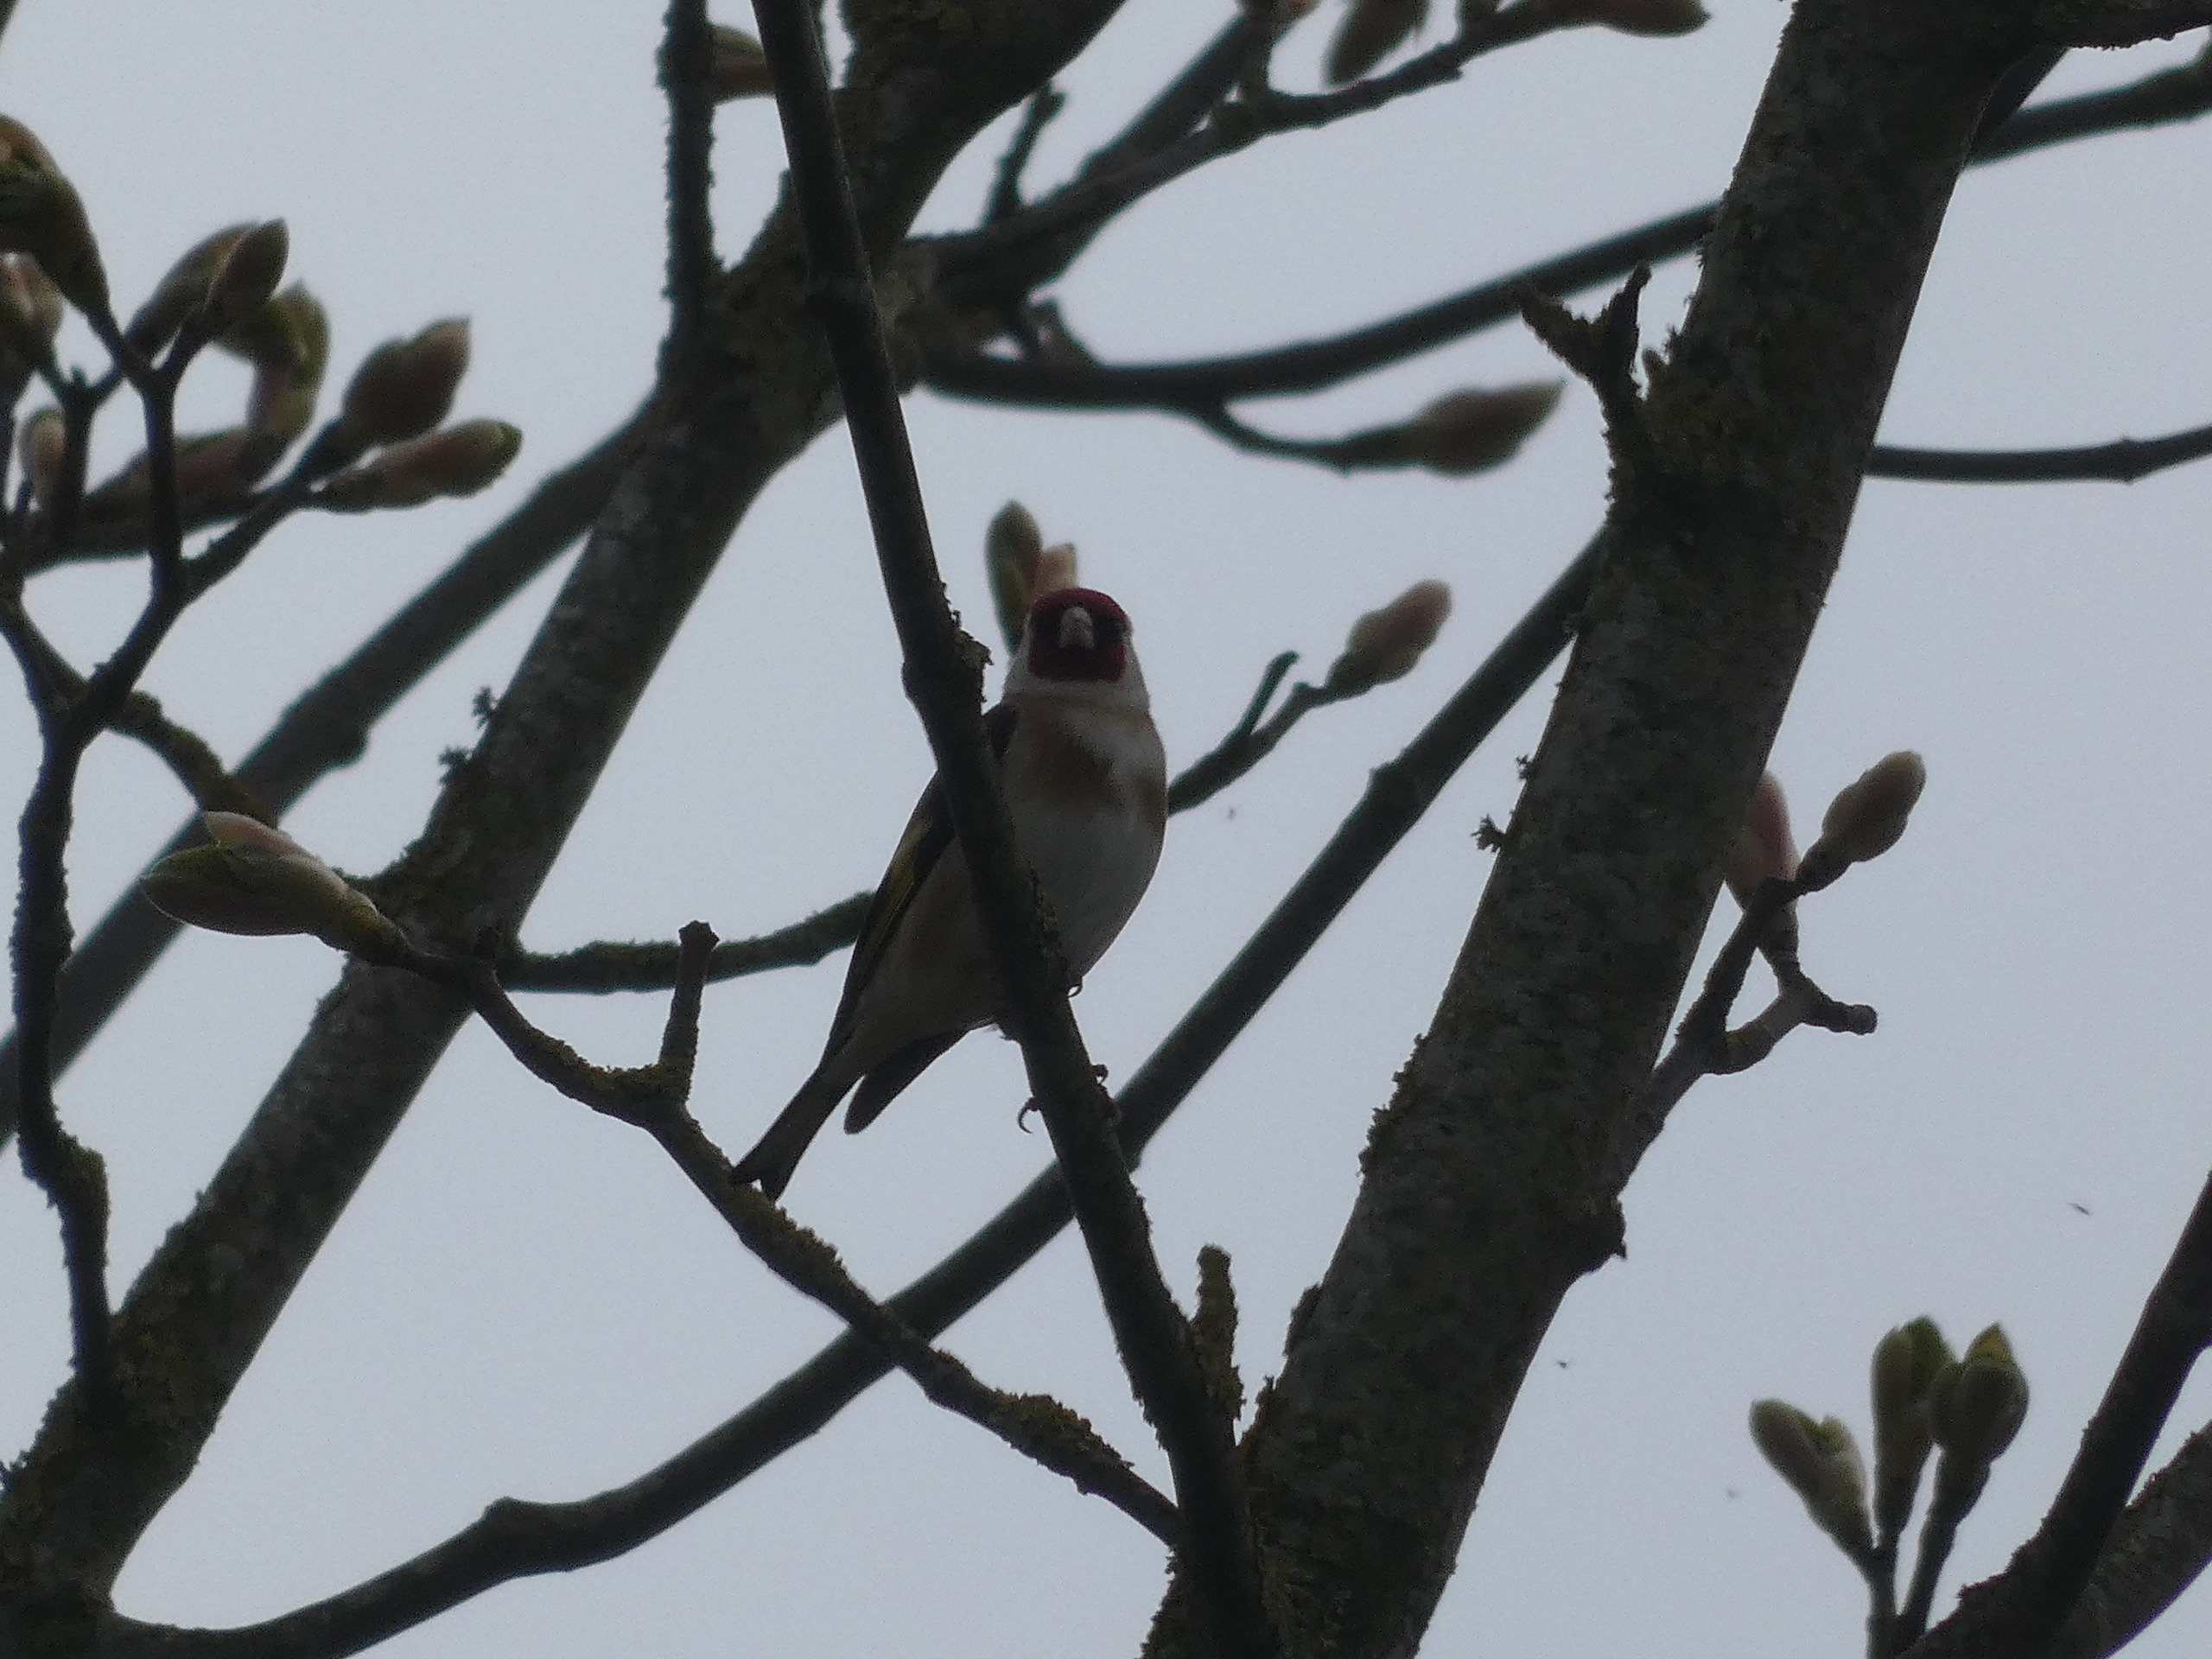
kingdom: Animalia
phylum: Chordata
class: Aves
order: Passeriformes
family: Fringillidae
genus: Carduelis
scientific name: Carduelis carduelis
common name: Stillits
